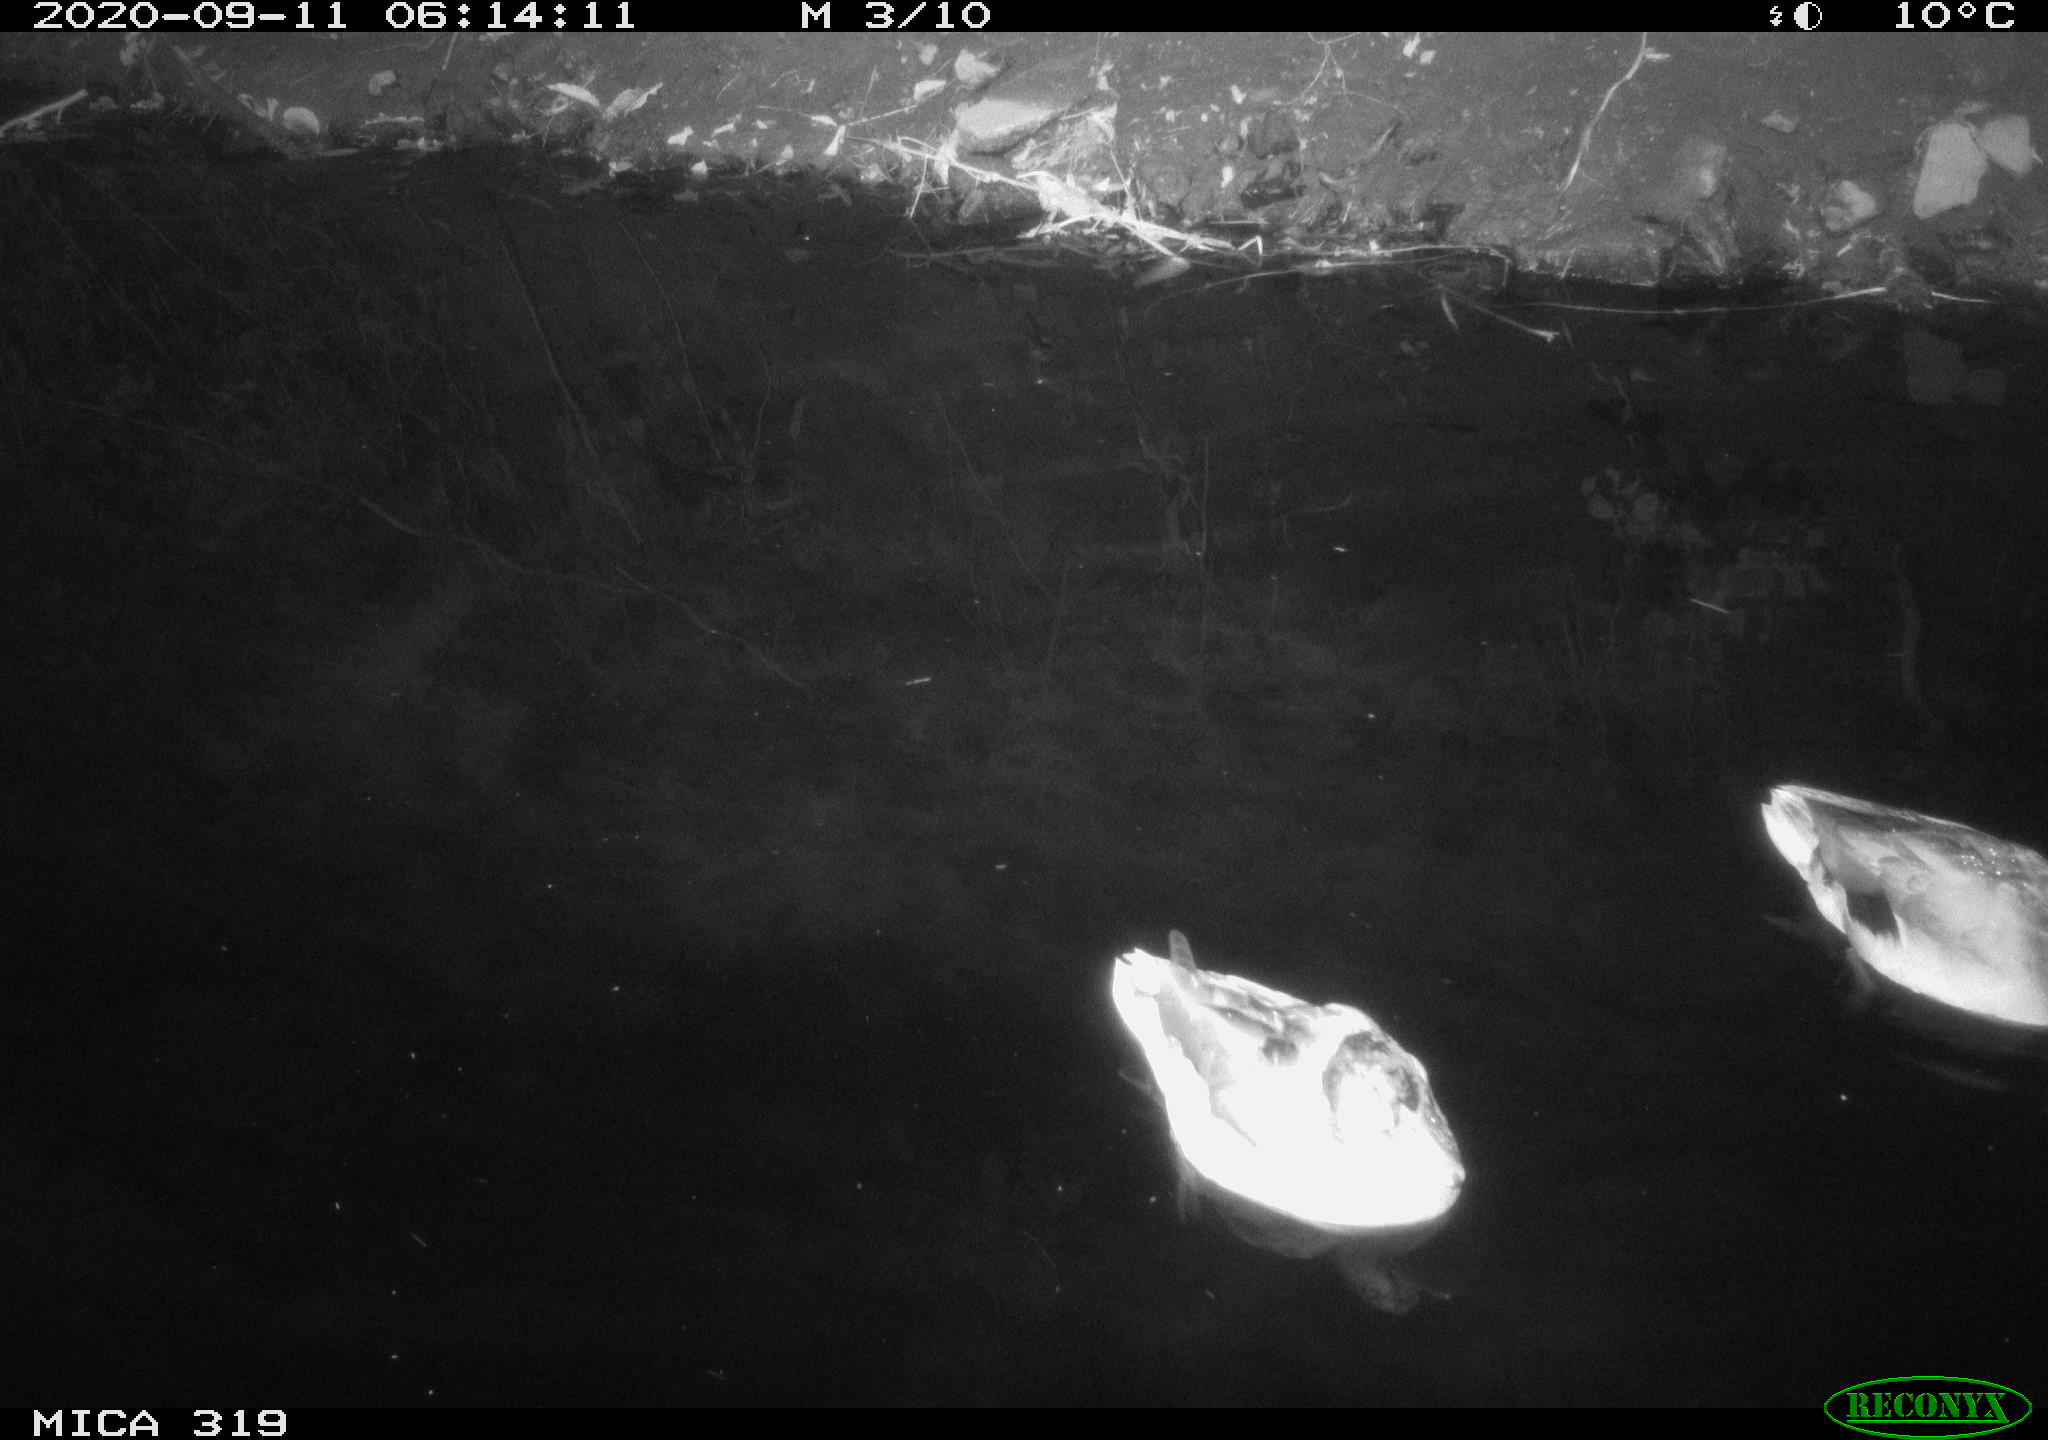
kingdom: Animalia
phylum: Chordata
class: Aves
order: Anseriformes
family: Anatidae
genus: Anas
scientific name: Anas platyrhynchos
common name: Mallard
